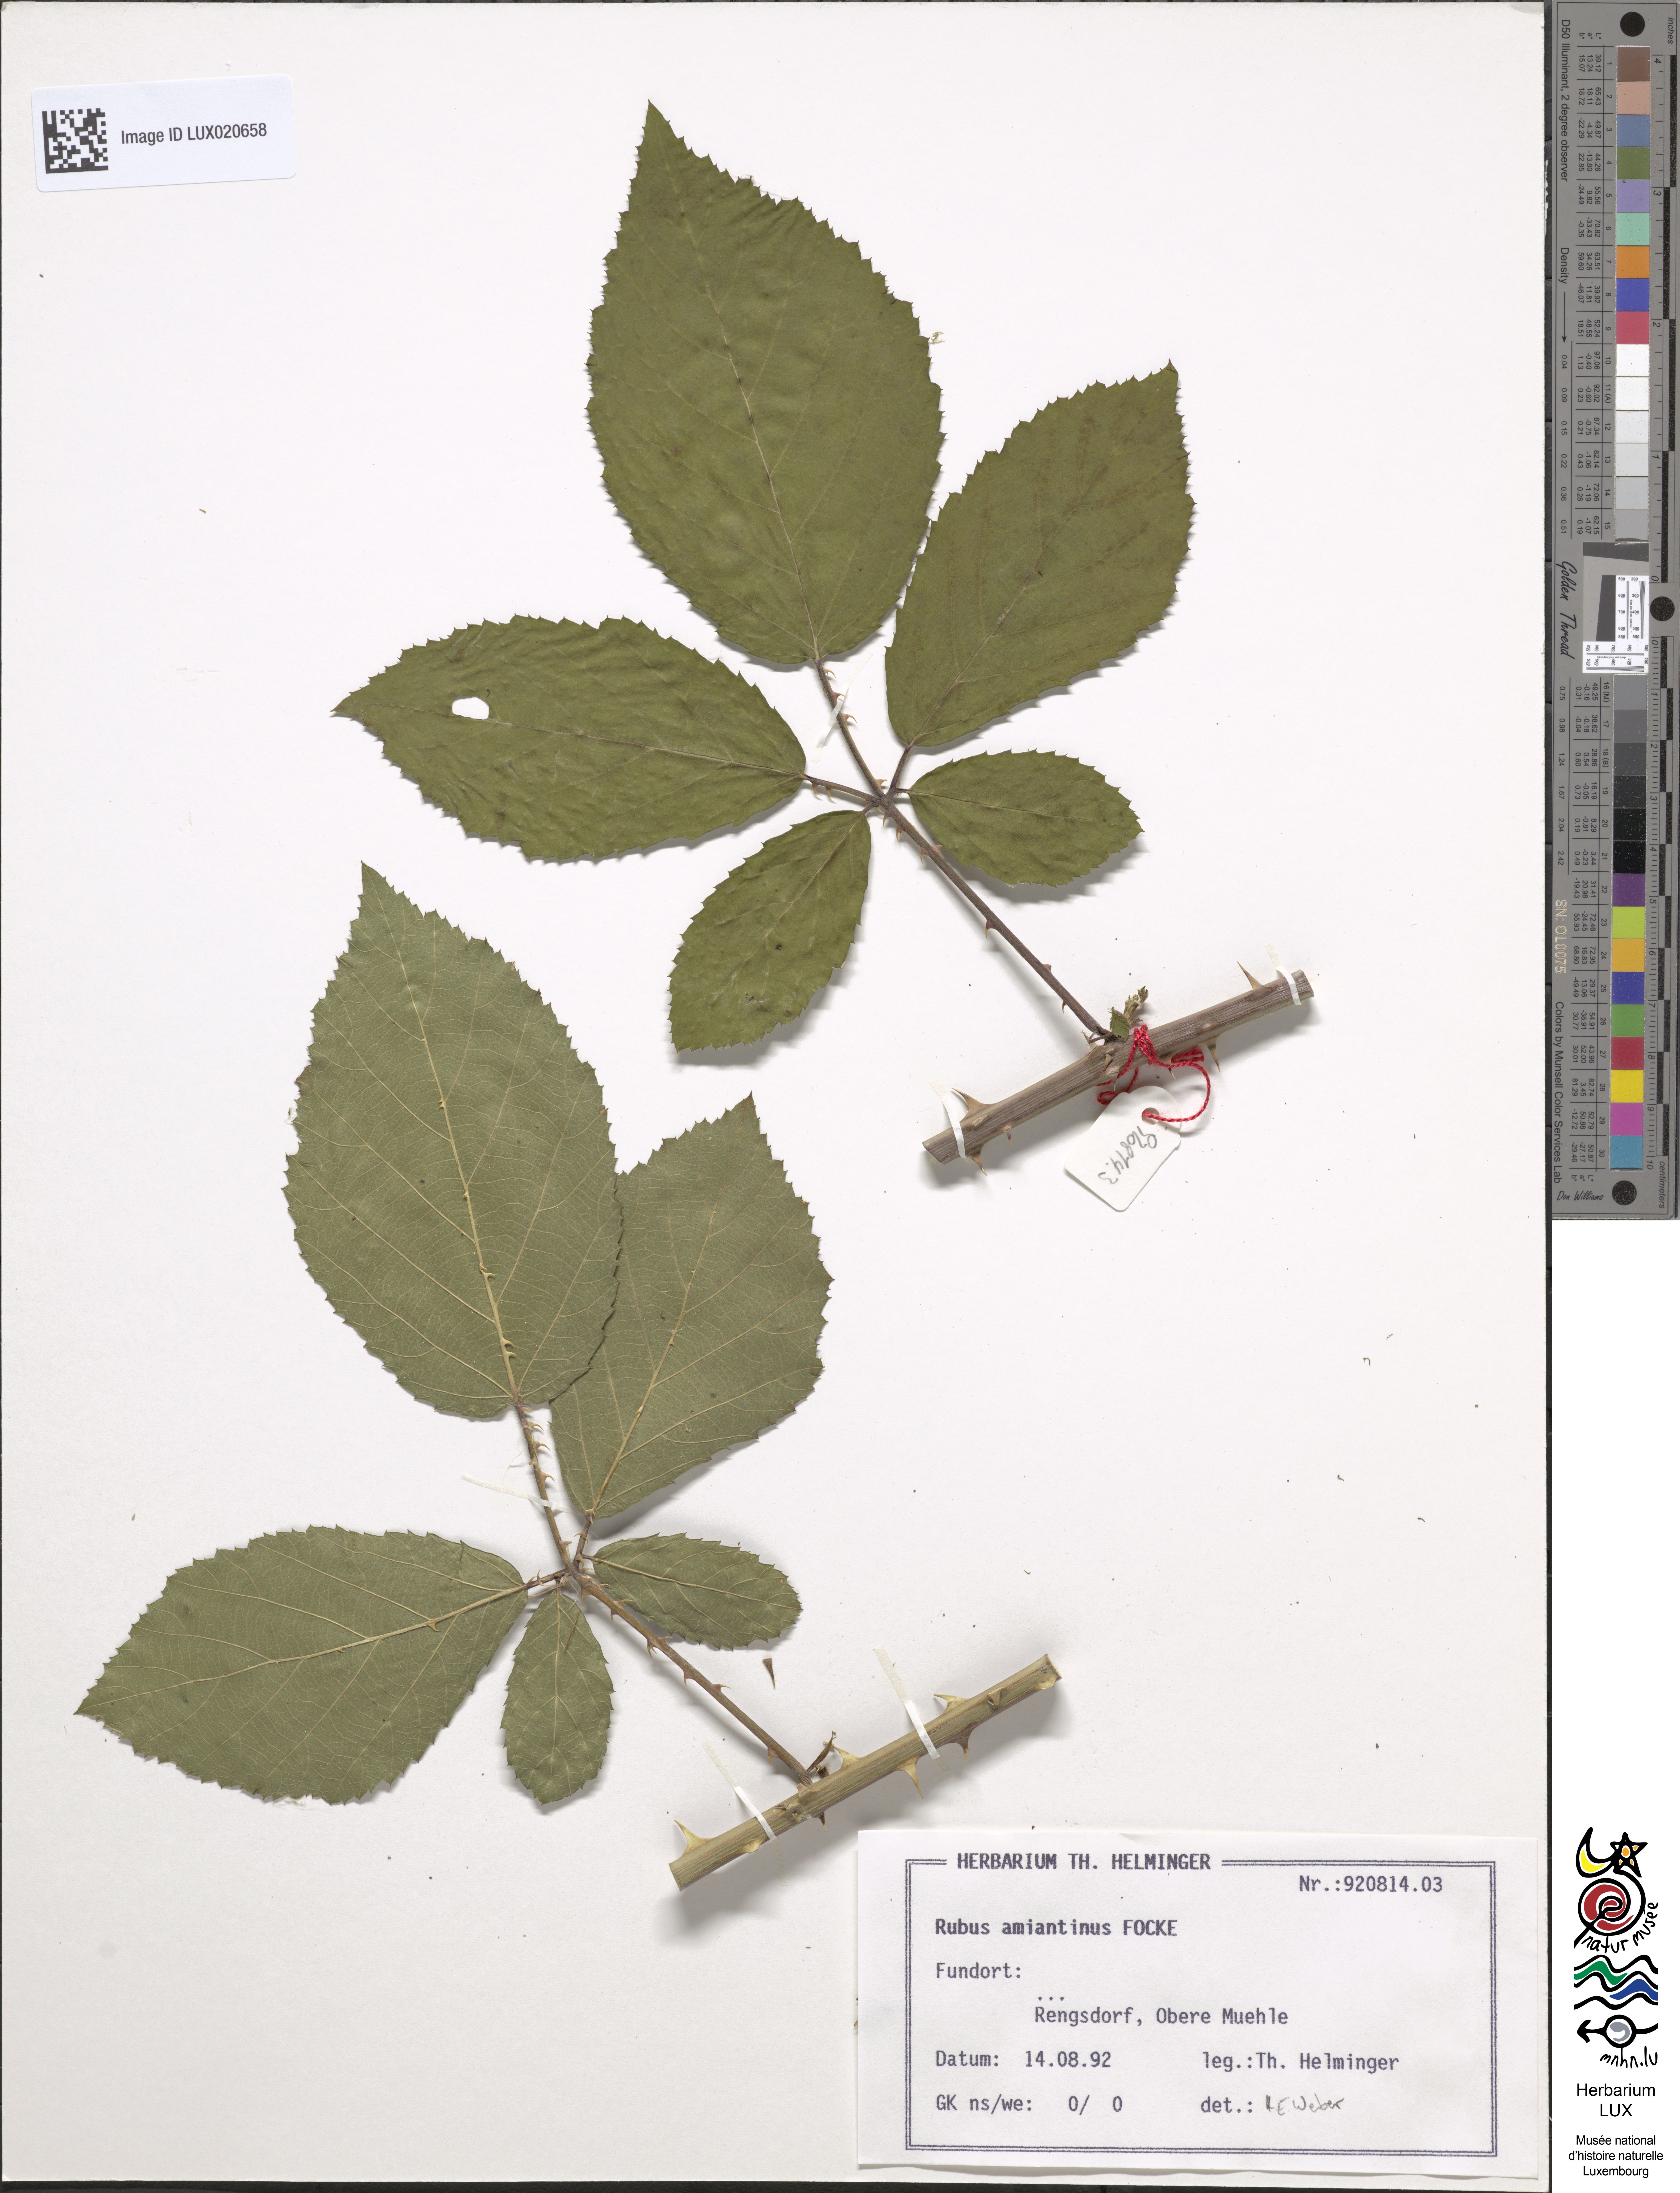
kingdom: Plantae
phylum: Tracheophyta
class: Magnoliopsida
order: Rosales
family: Rosaceae
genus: Rubus
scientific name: Rubus amiantinus
